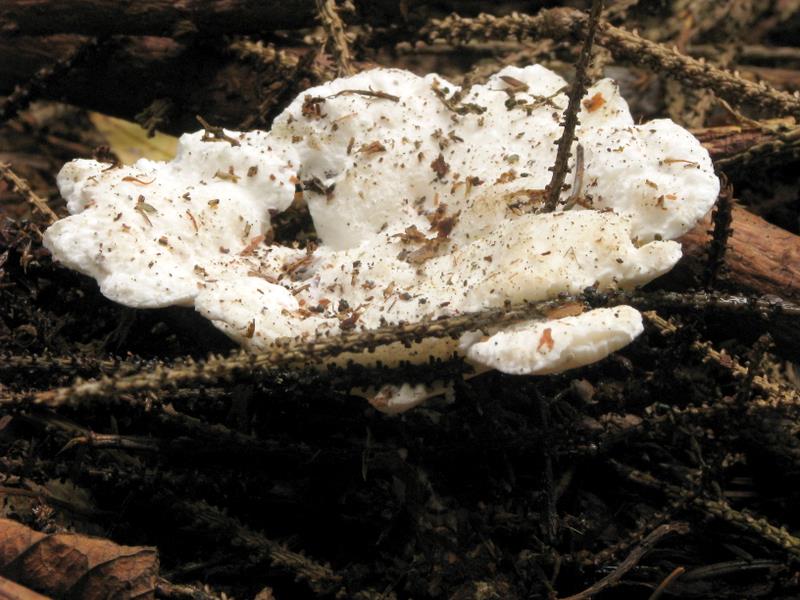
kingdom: Fungi
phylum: Basidiomycota
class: Agaricomycetes
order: Polyporales
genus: Amaropostia
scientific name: Amaropostia stiptica
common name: bitter kødporesvamp
